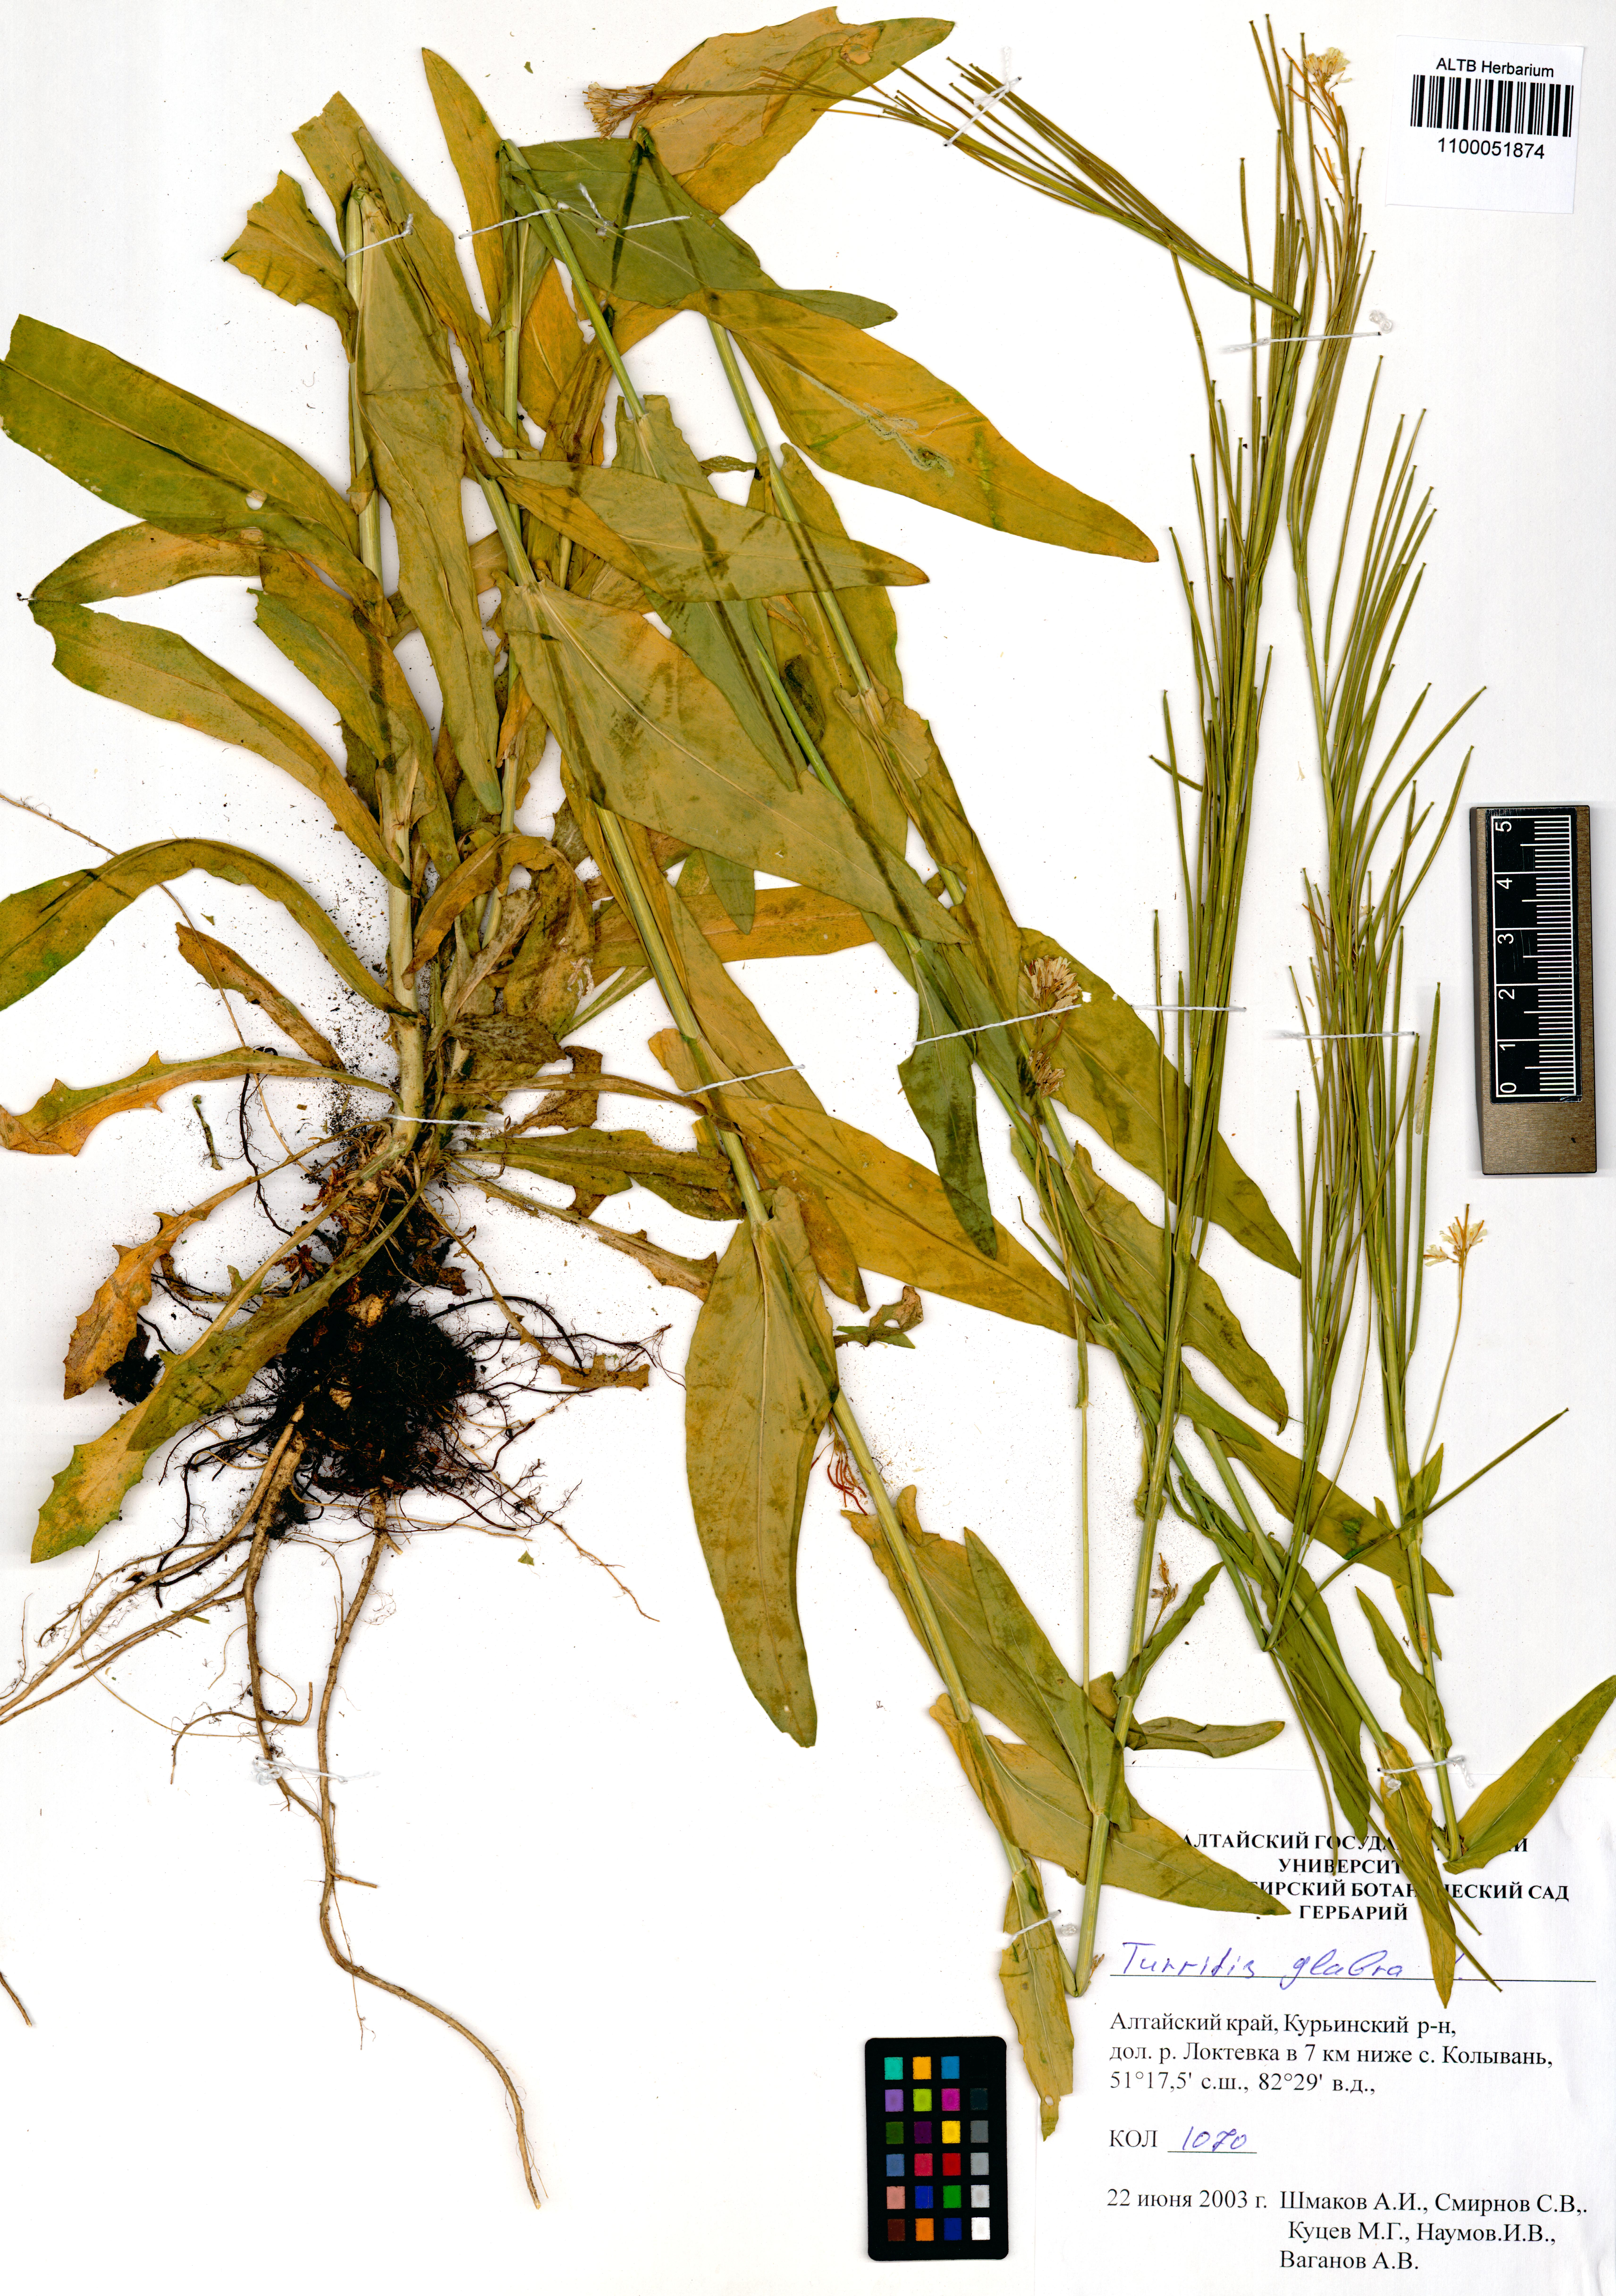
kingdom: Plantae
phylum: Tracheophyta
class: Magnoliopsida
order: Brassicales
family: Brassicaceae
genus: Turritis
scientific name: Turritis glabra
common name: Tower rockcress
